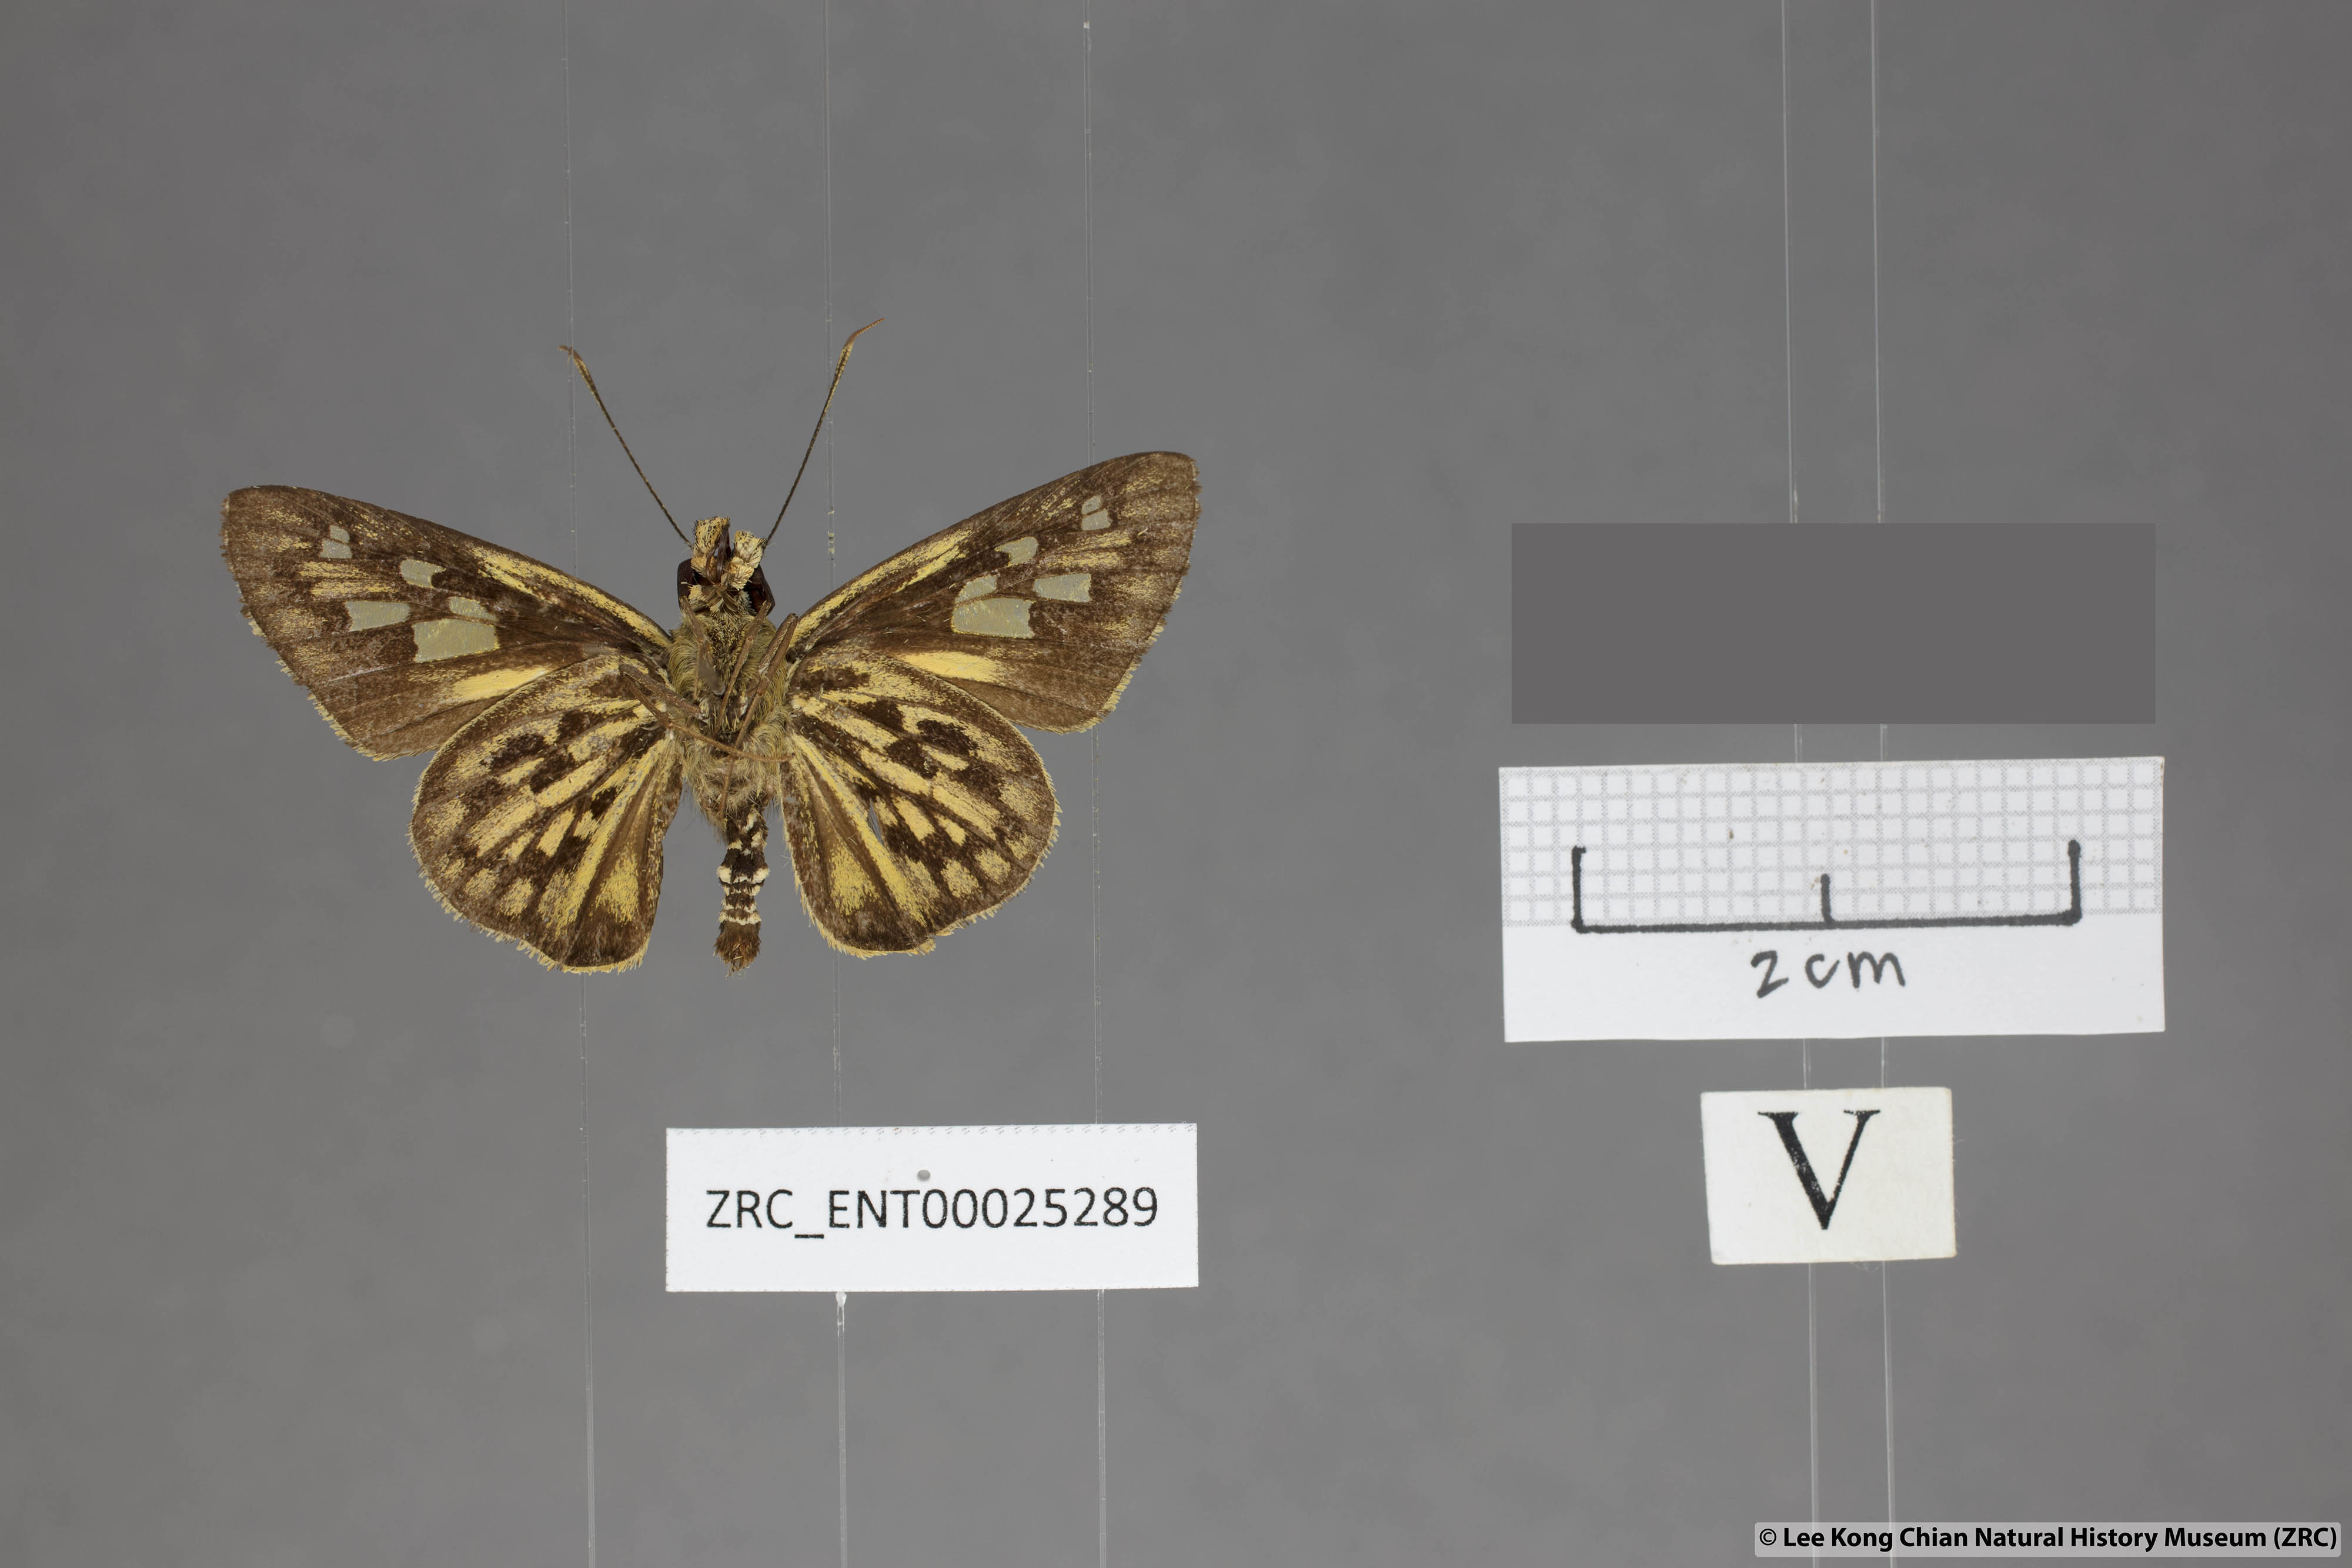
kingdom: Animalia
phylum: Arthropoda
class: Insecta
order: Lepidoptera
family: Hesperiidae
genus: Plastingia
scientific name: Plastingia pellonia
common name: Yellow chequered lancer
